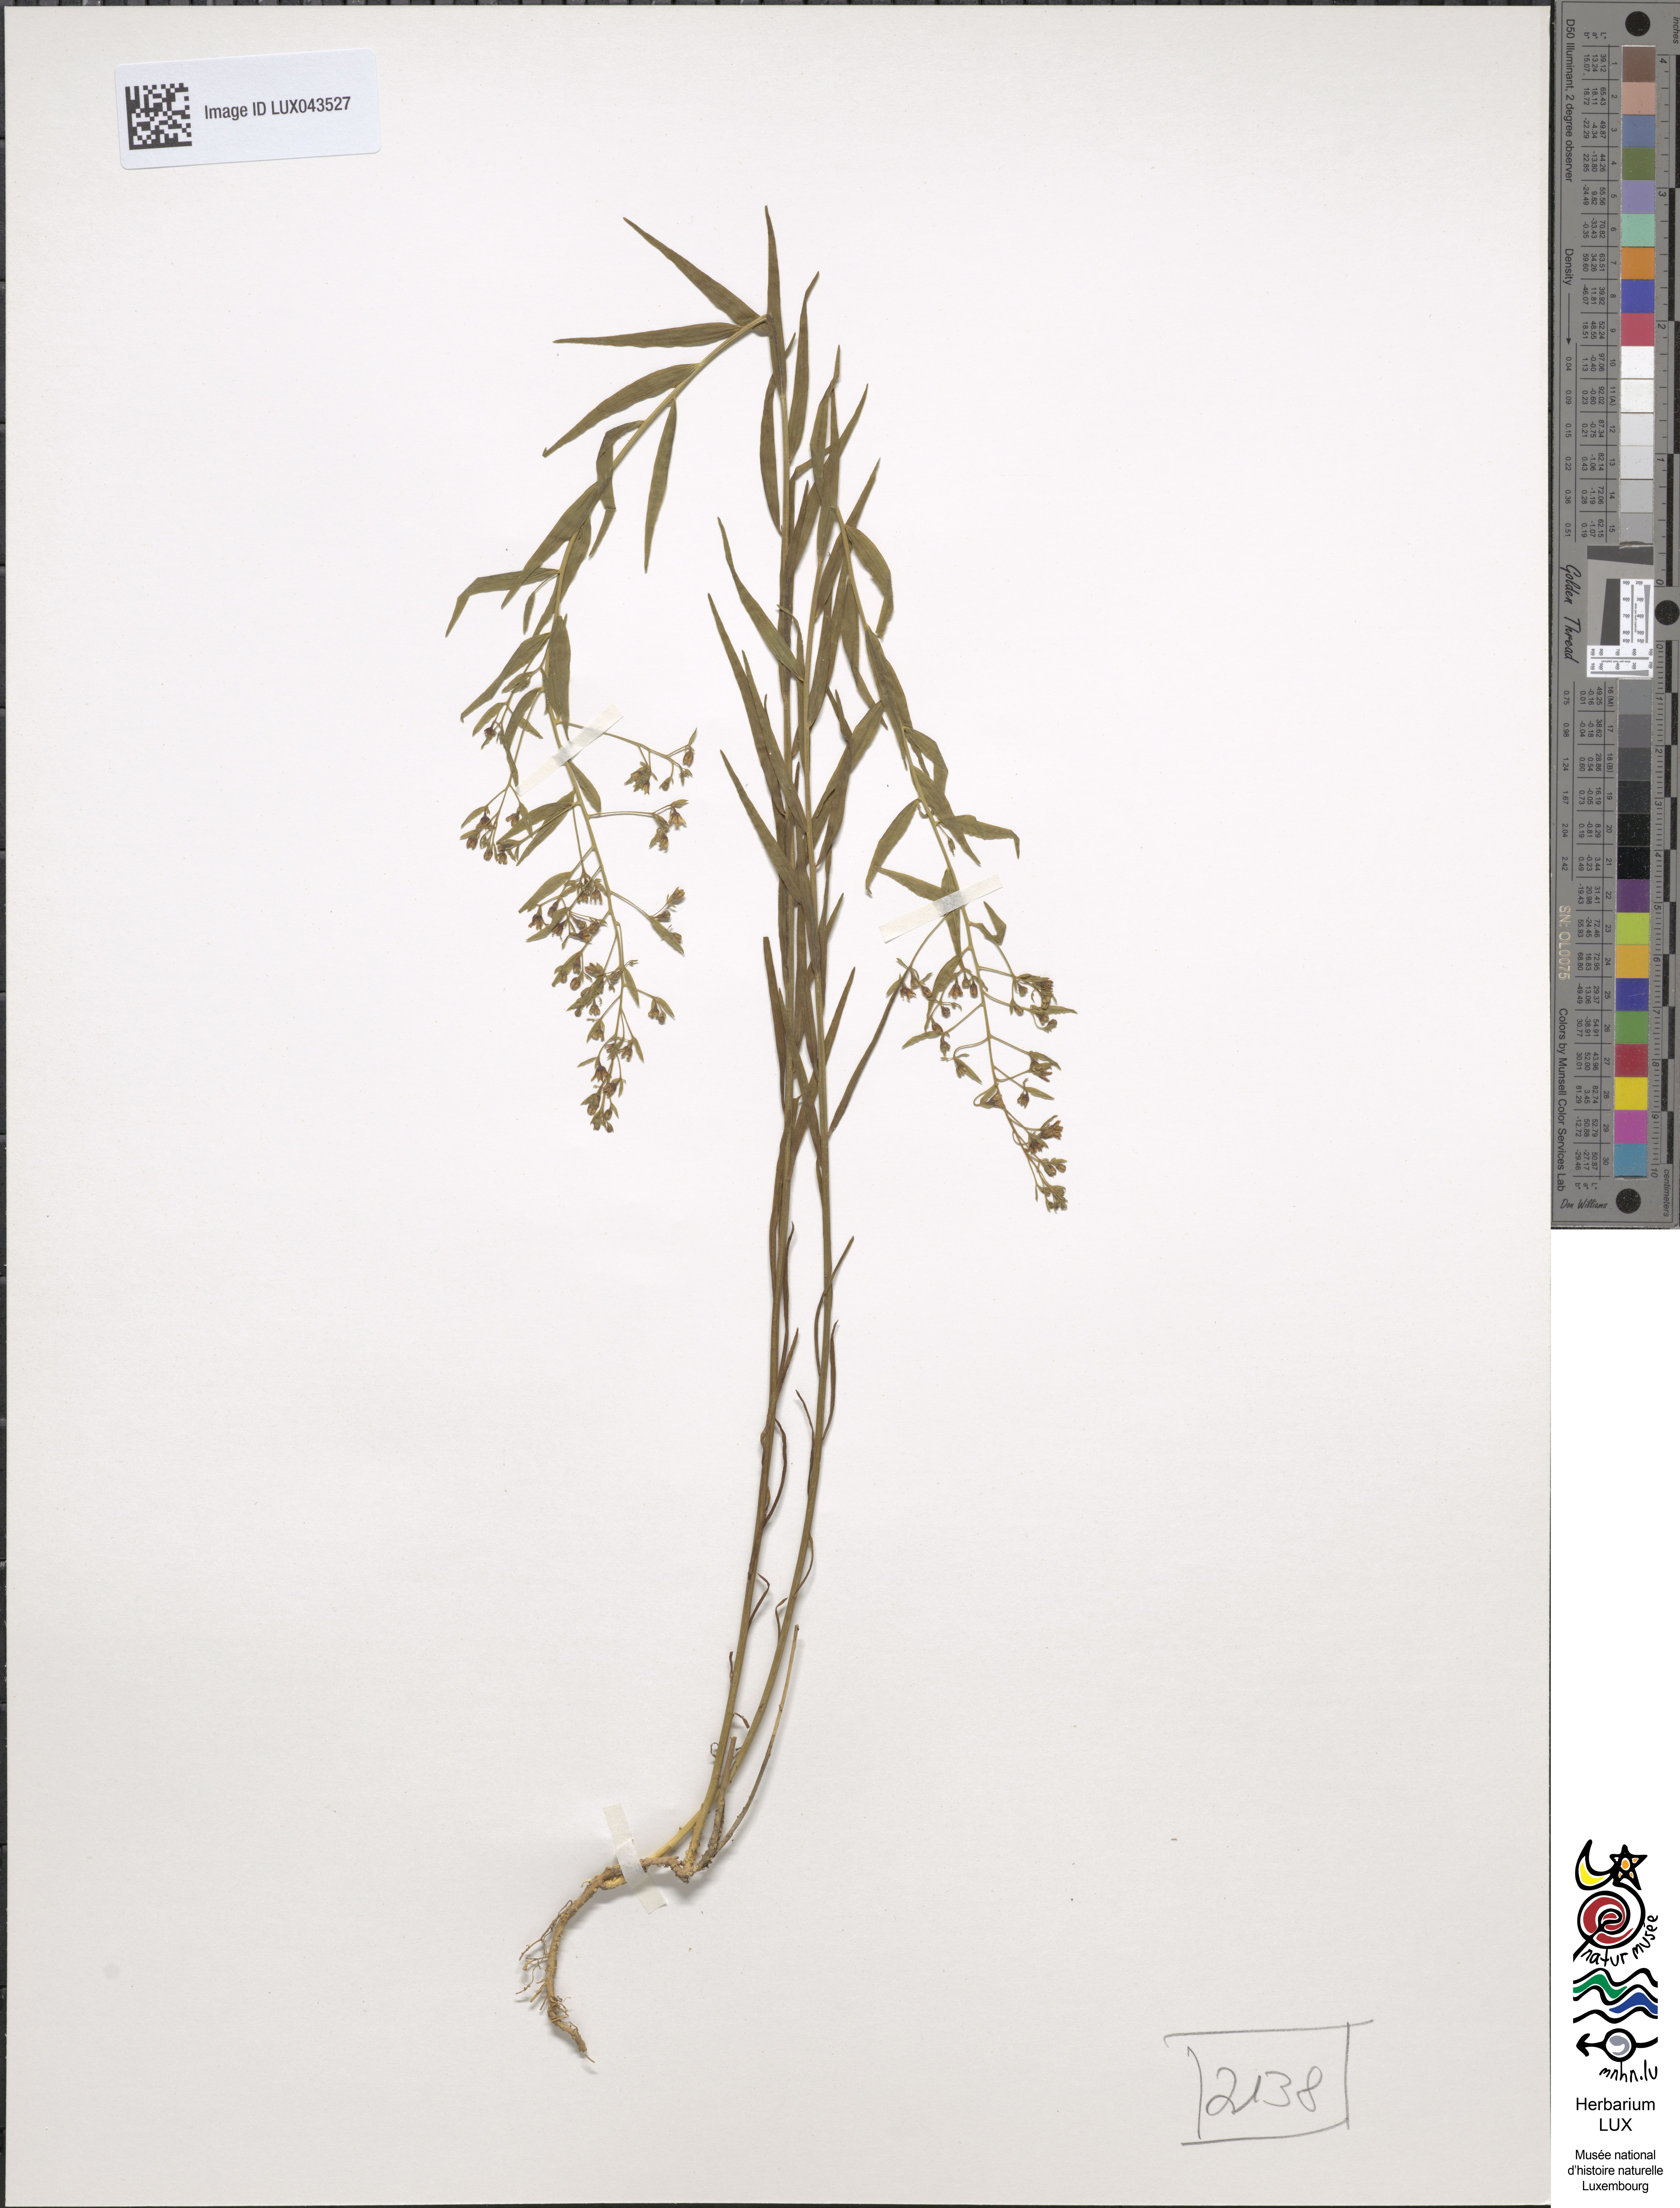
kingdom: Plantae
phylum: Tracheophyta
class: Magnoliopsida
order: Santalales
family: Thesiaceae
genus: Thesium
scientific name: Thesium bavarum
